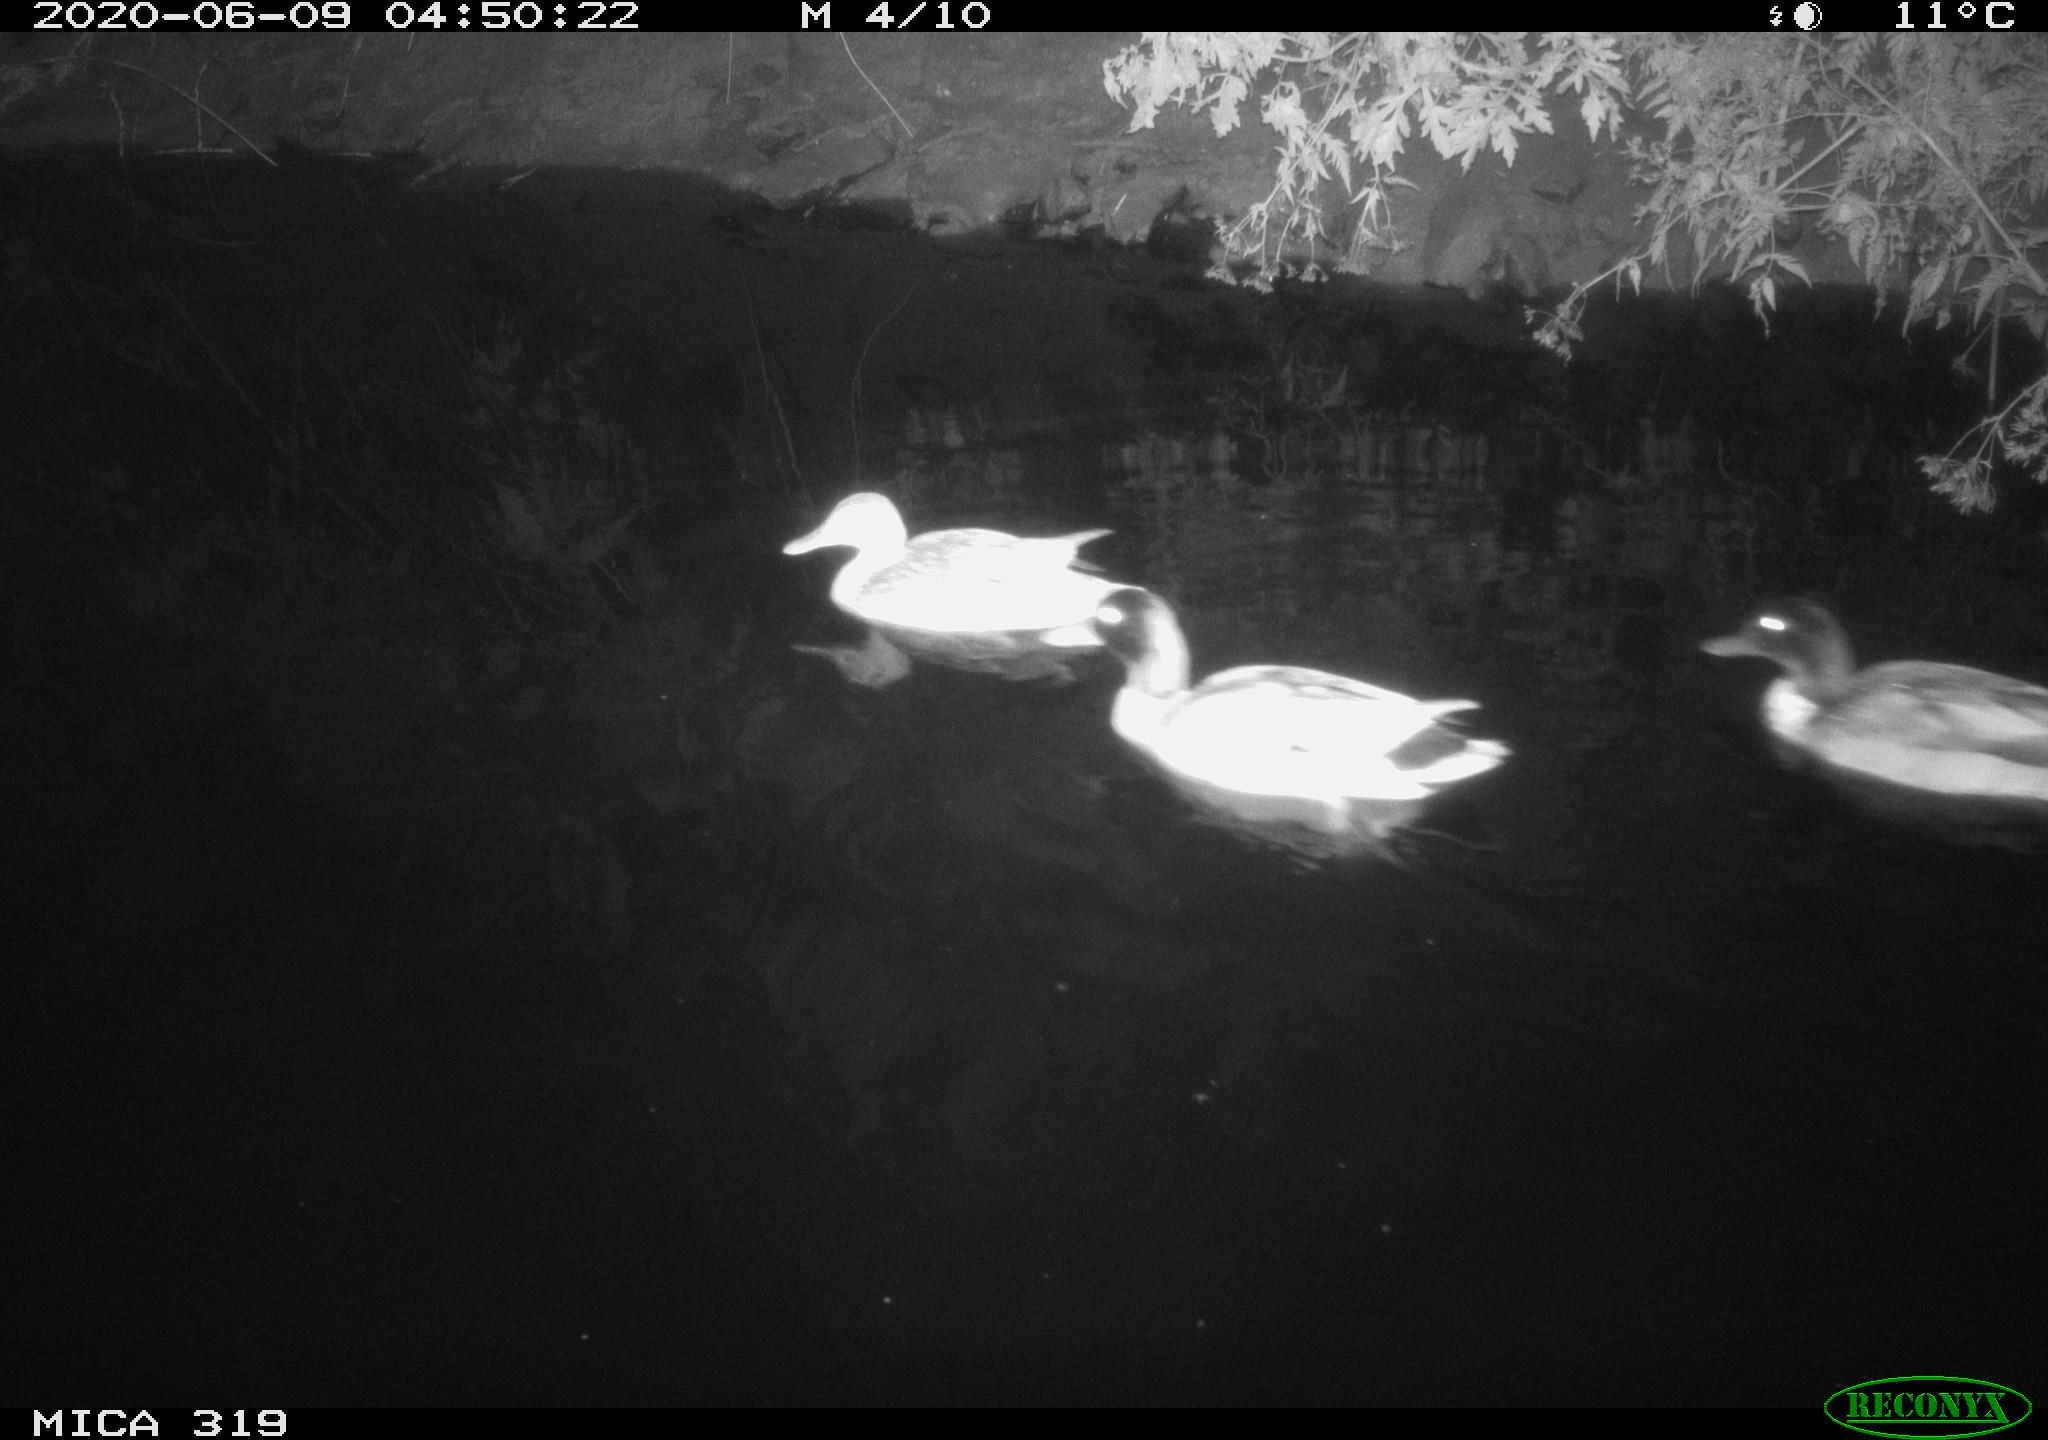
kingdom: Animalia
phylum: Chordata
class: Aves
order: Anseriformes
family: Anatidae
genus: Anas
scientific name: Anas platyrhynchos
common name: Mallard
